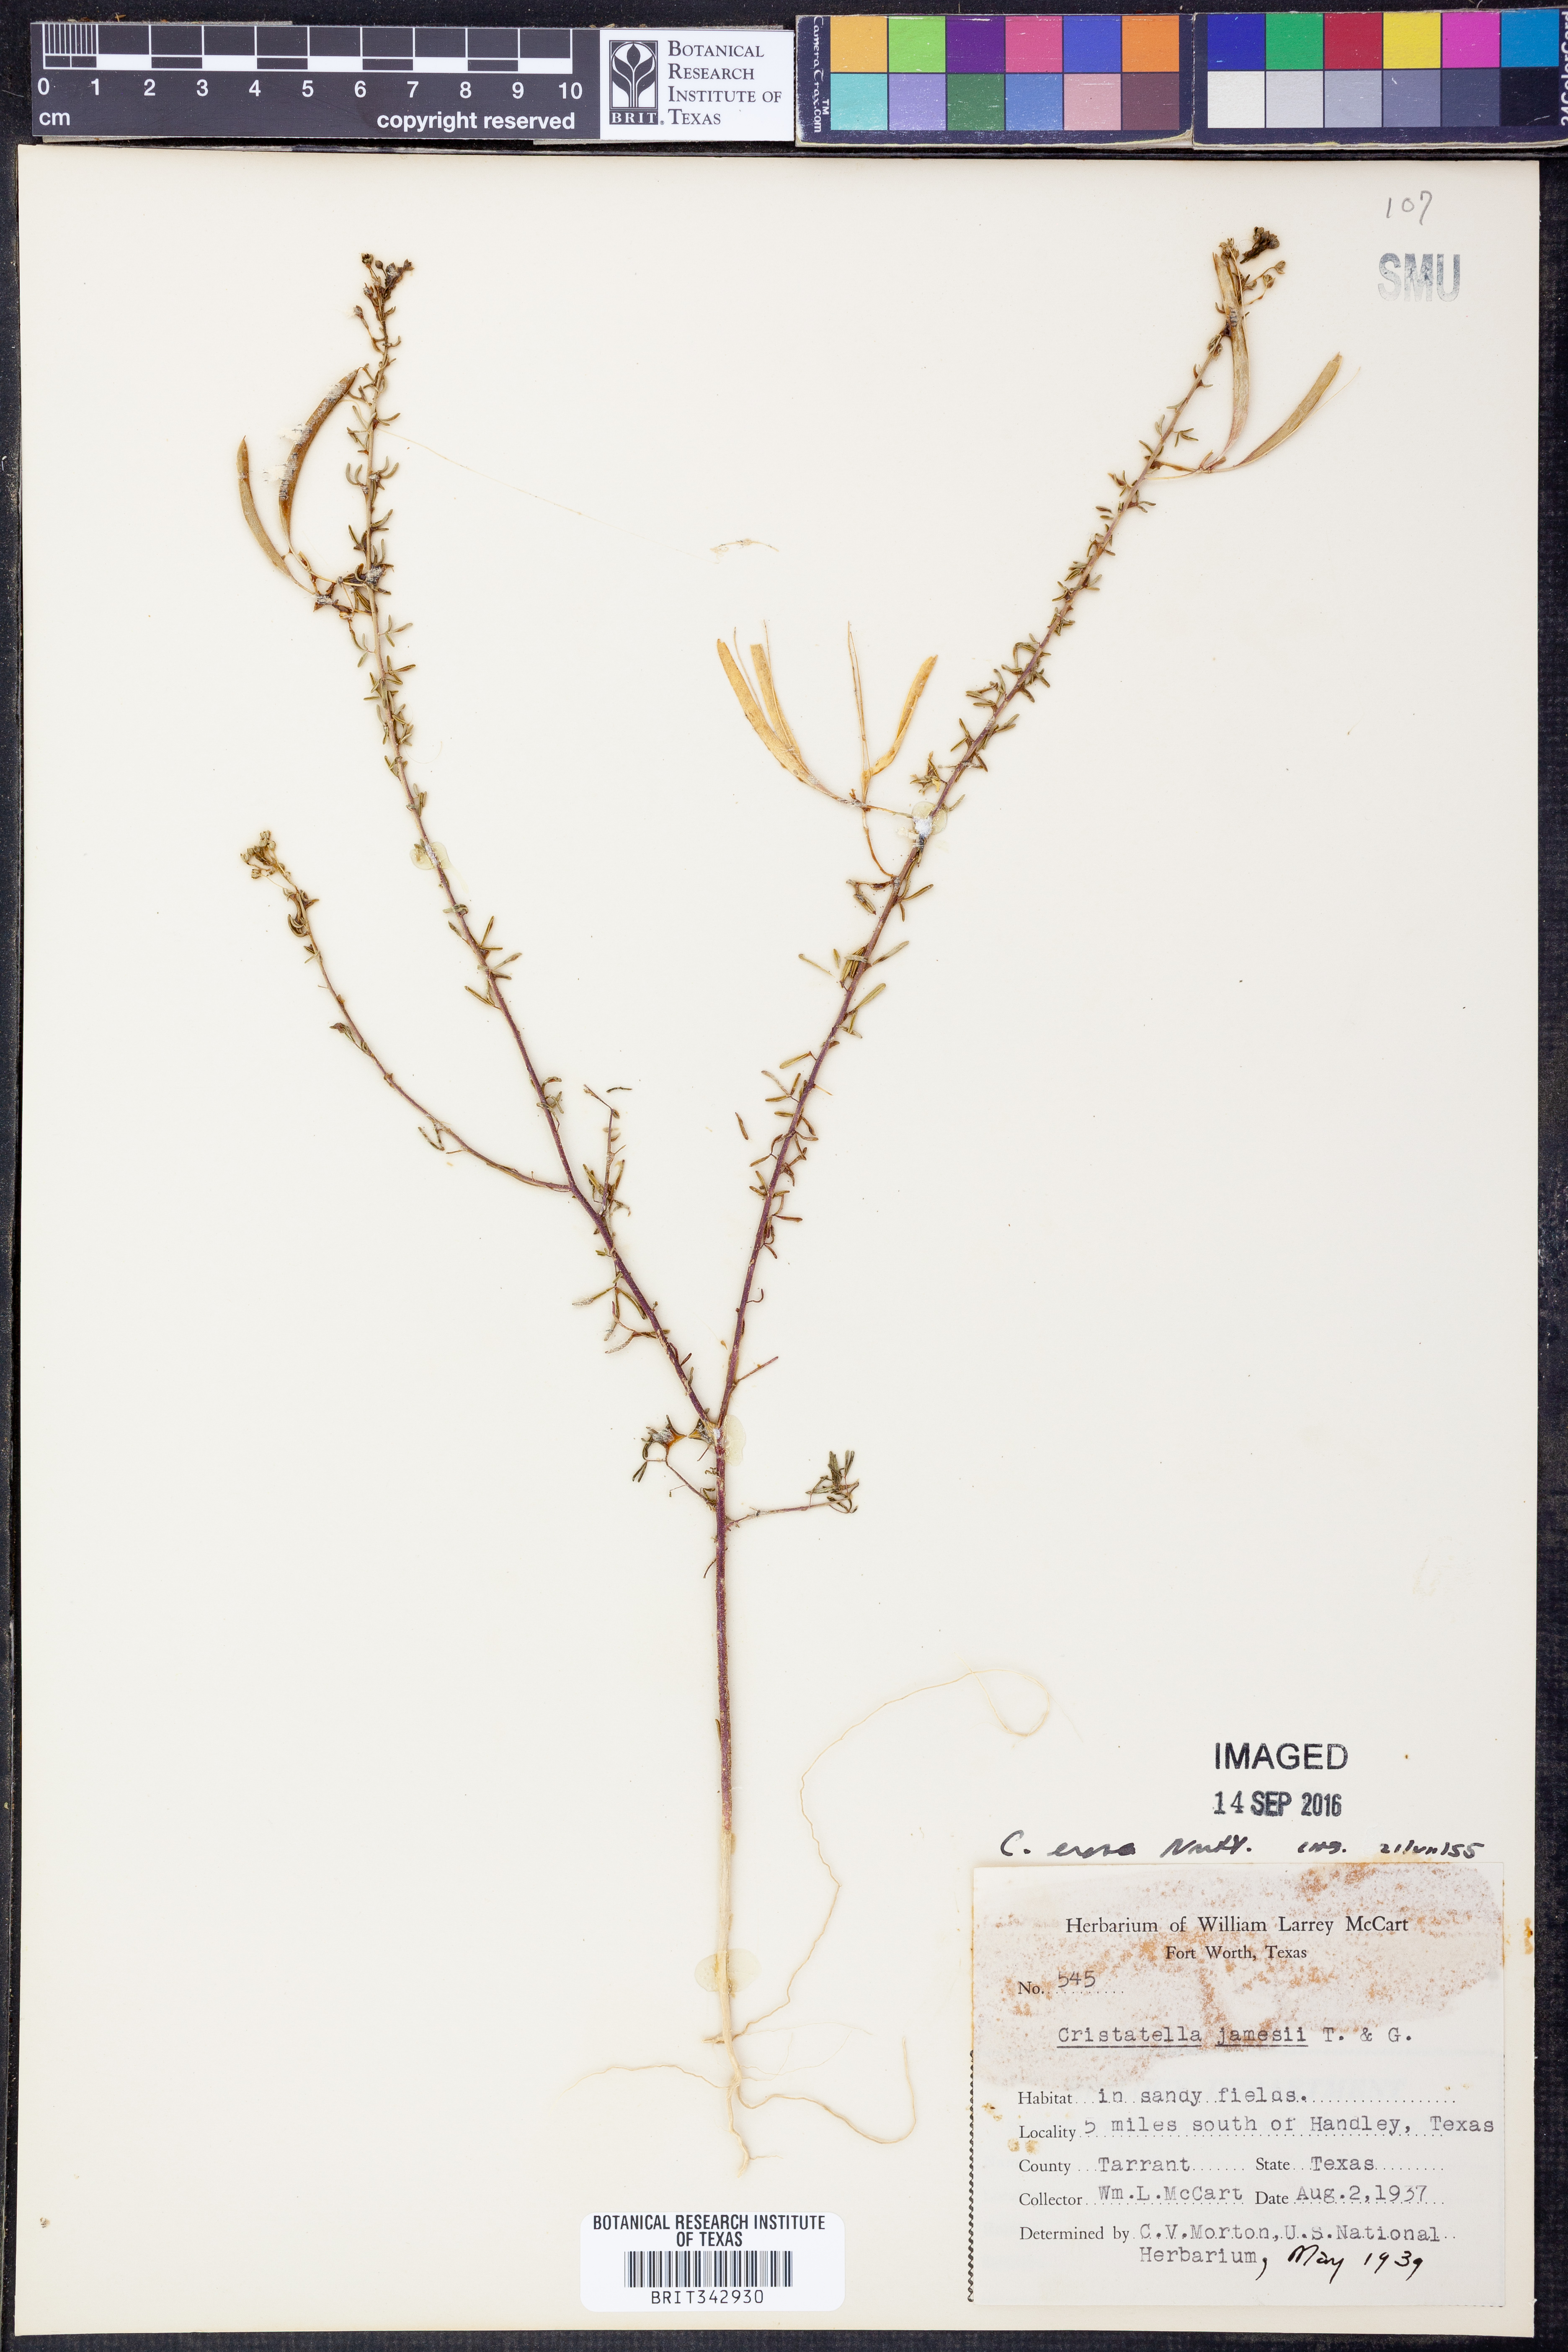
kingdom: Plantae
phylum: Tracheophyta
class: Magnoliopsida
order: Brassicales
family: Cleomaceae
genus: Polanisia
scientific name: Polanisia erosa
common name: Large clammyweed
